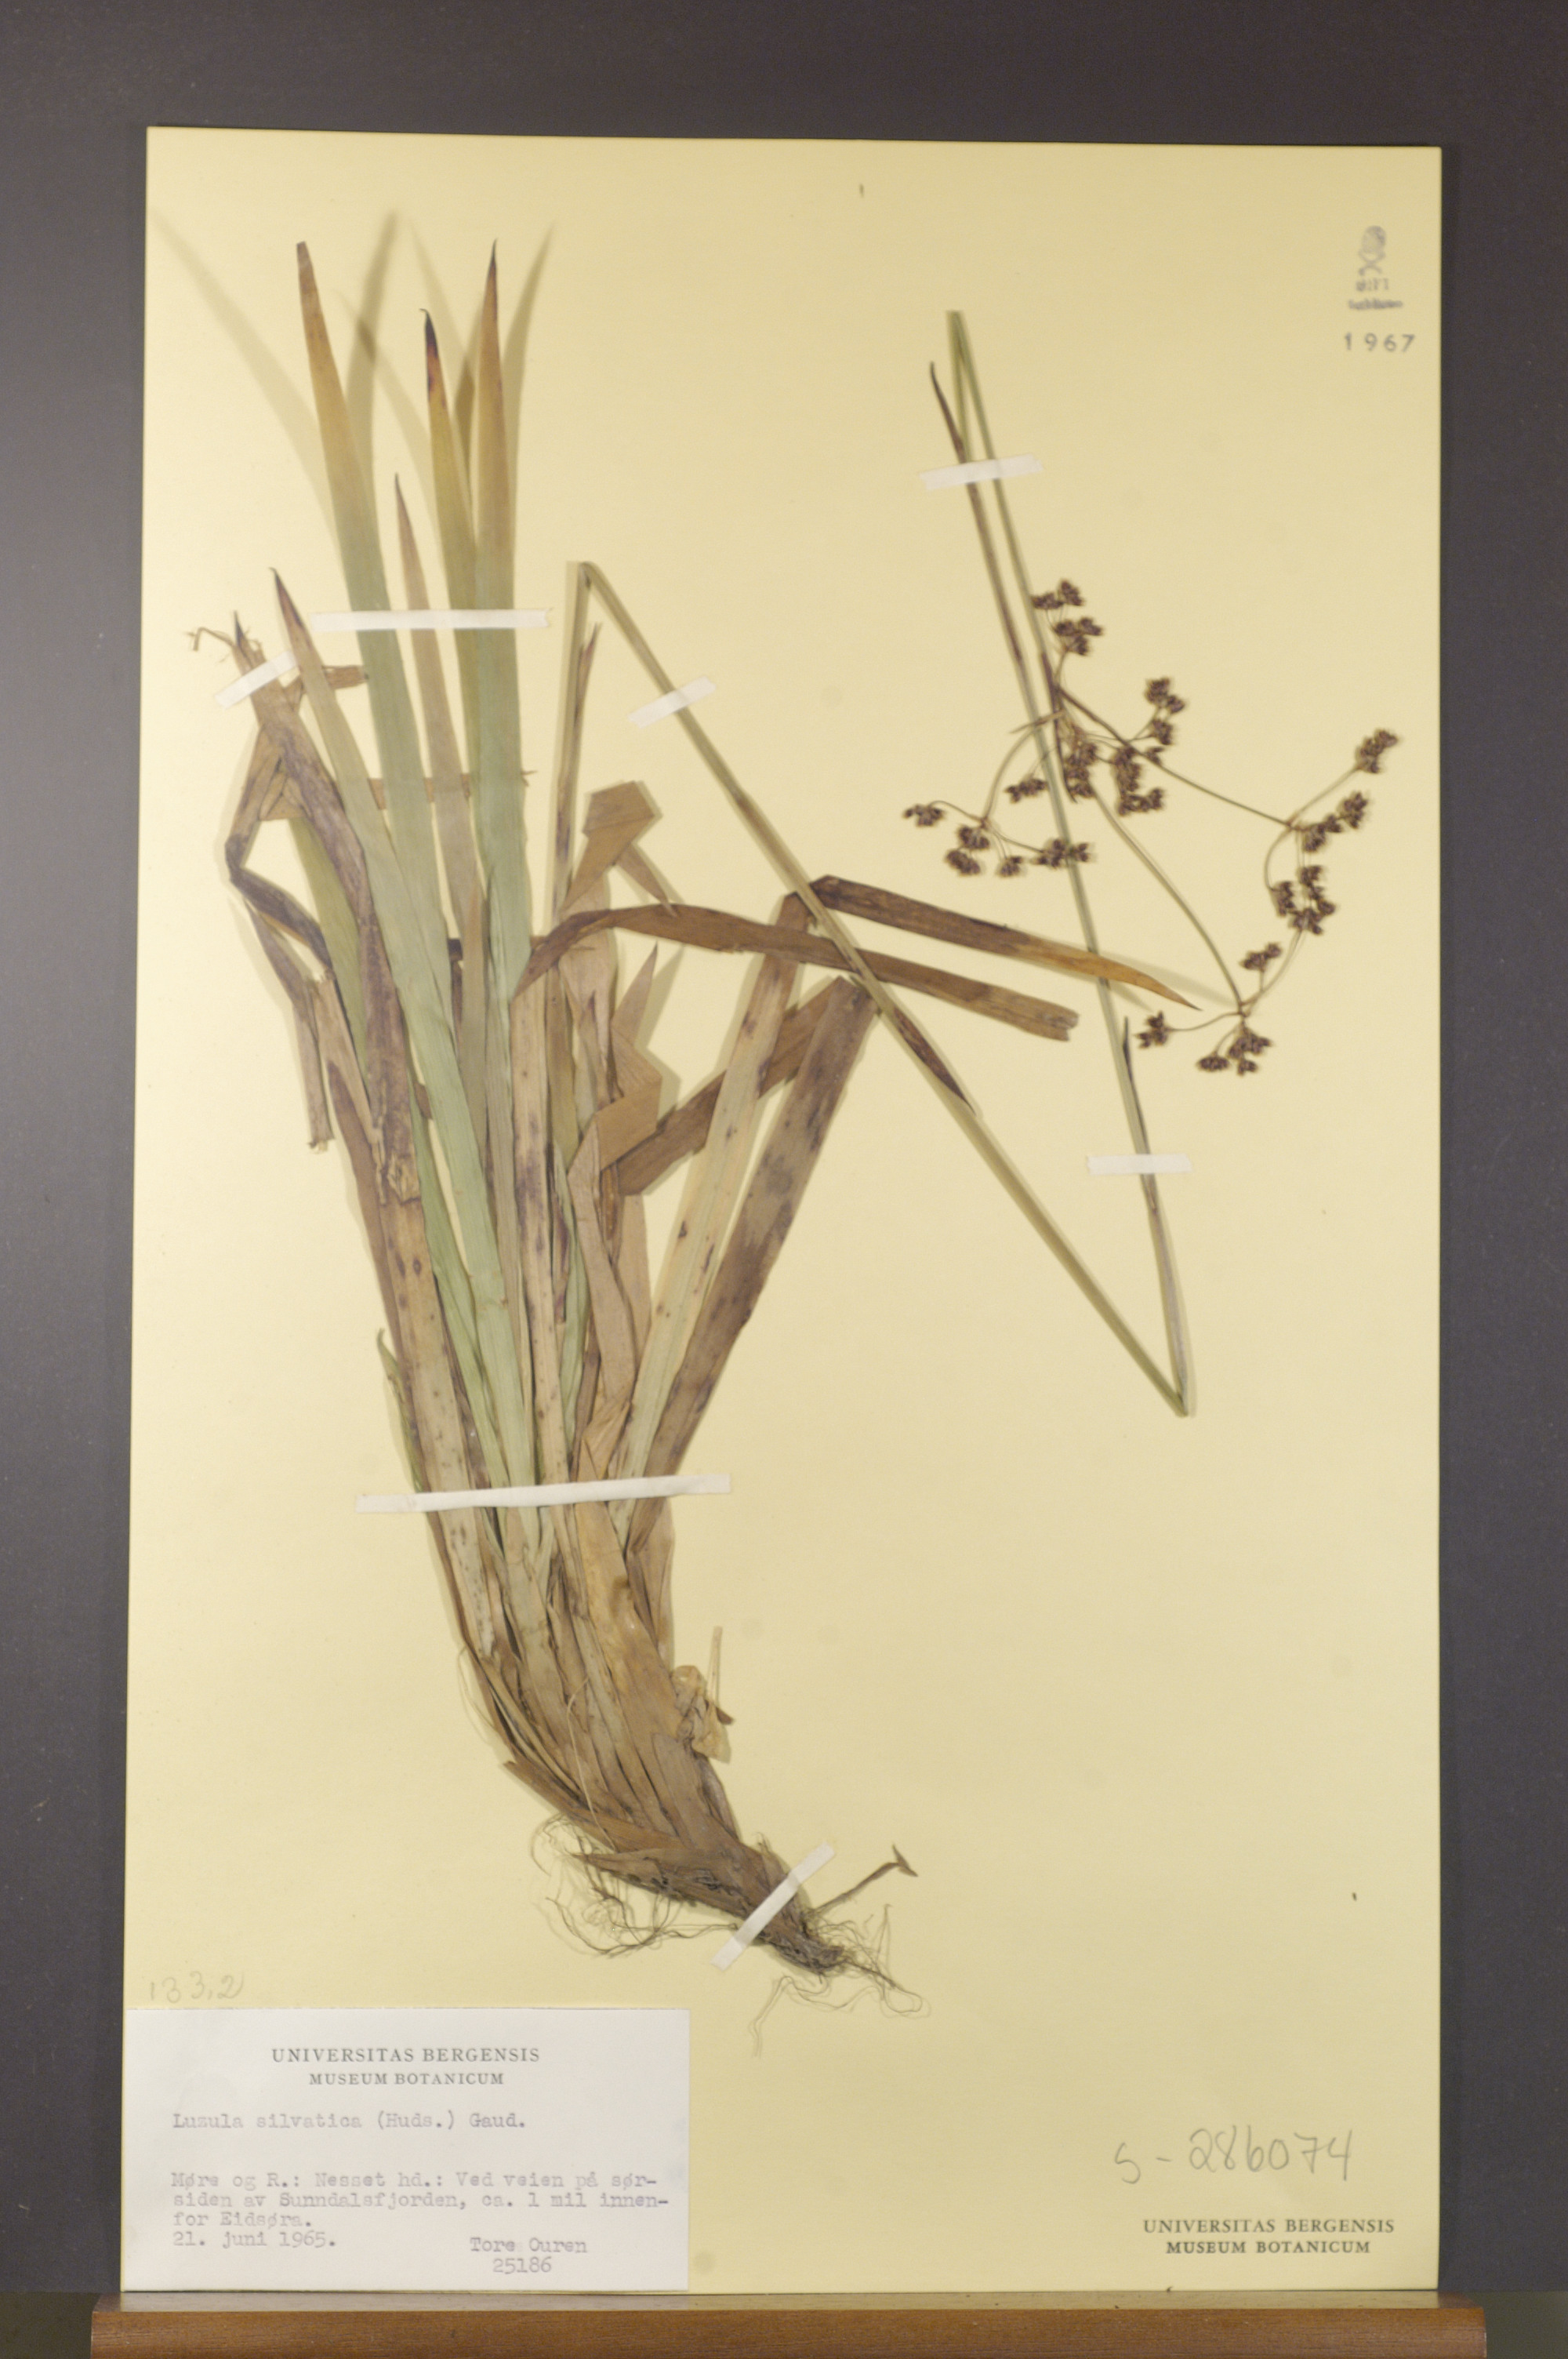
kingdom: Plantae
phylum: Tracheophyta
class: Liliopsida
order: Poales
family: Juncaceae
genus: Luzula
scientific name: Luzula sylvatica
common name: Great wood-rush
